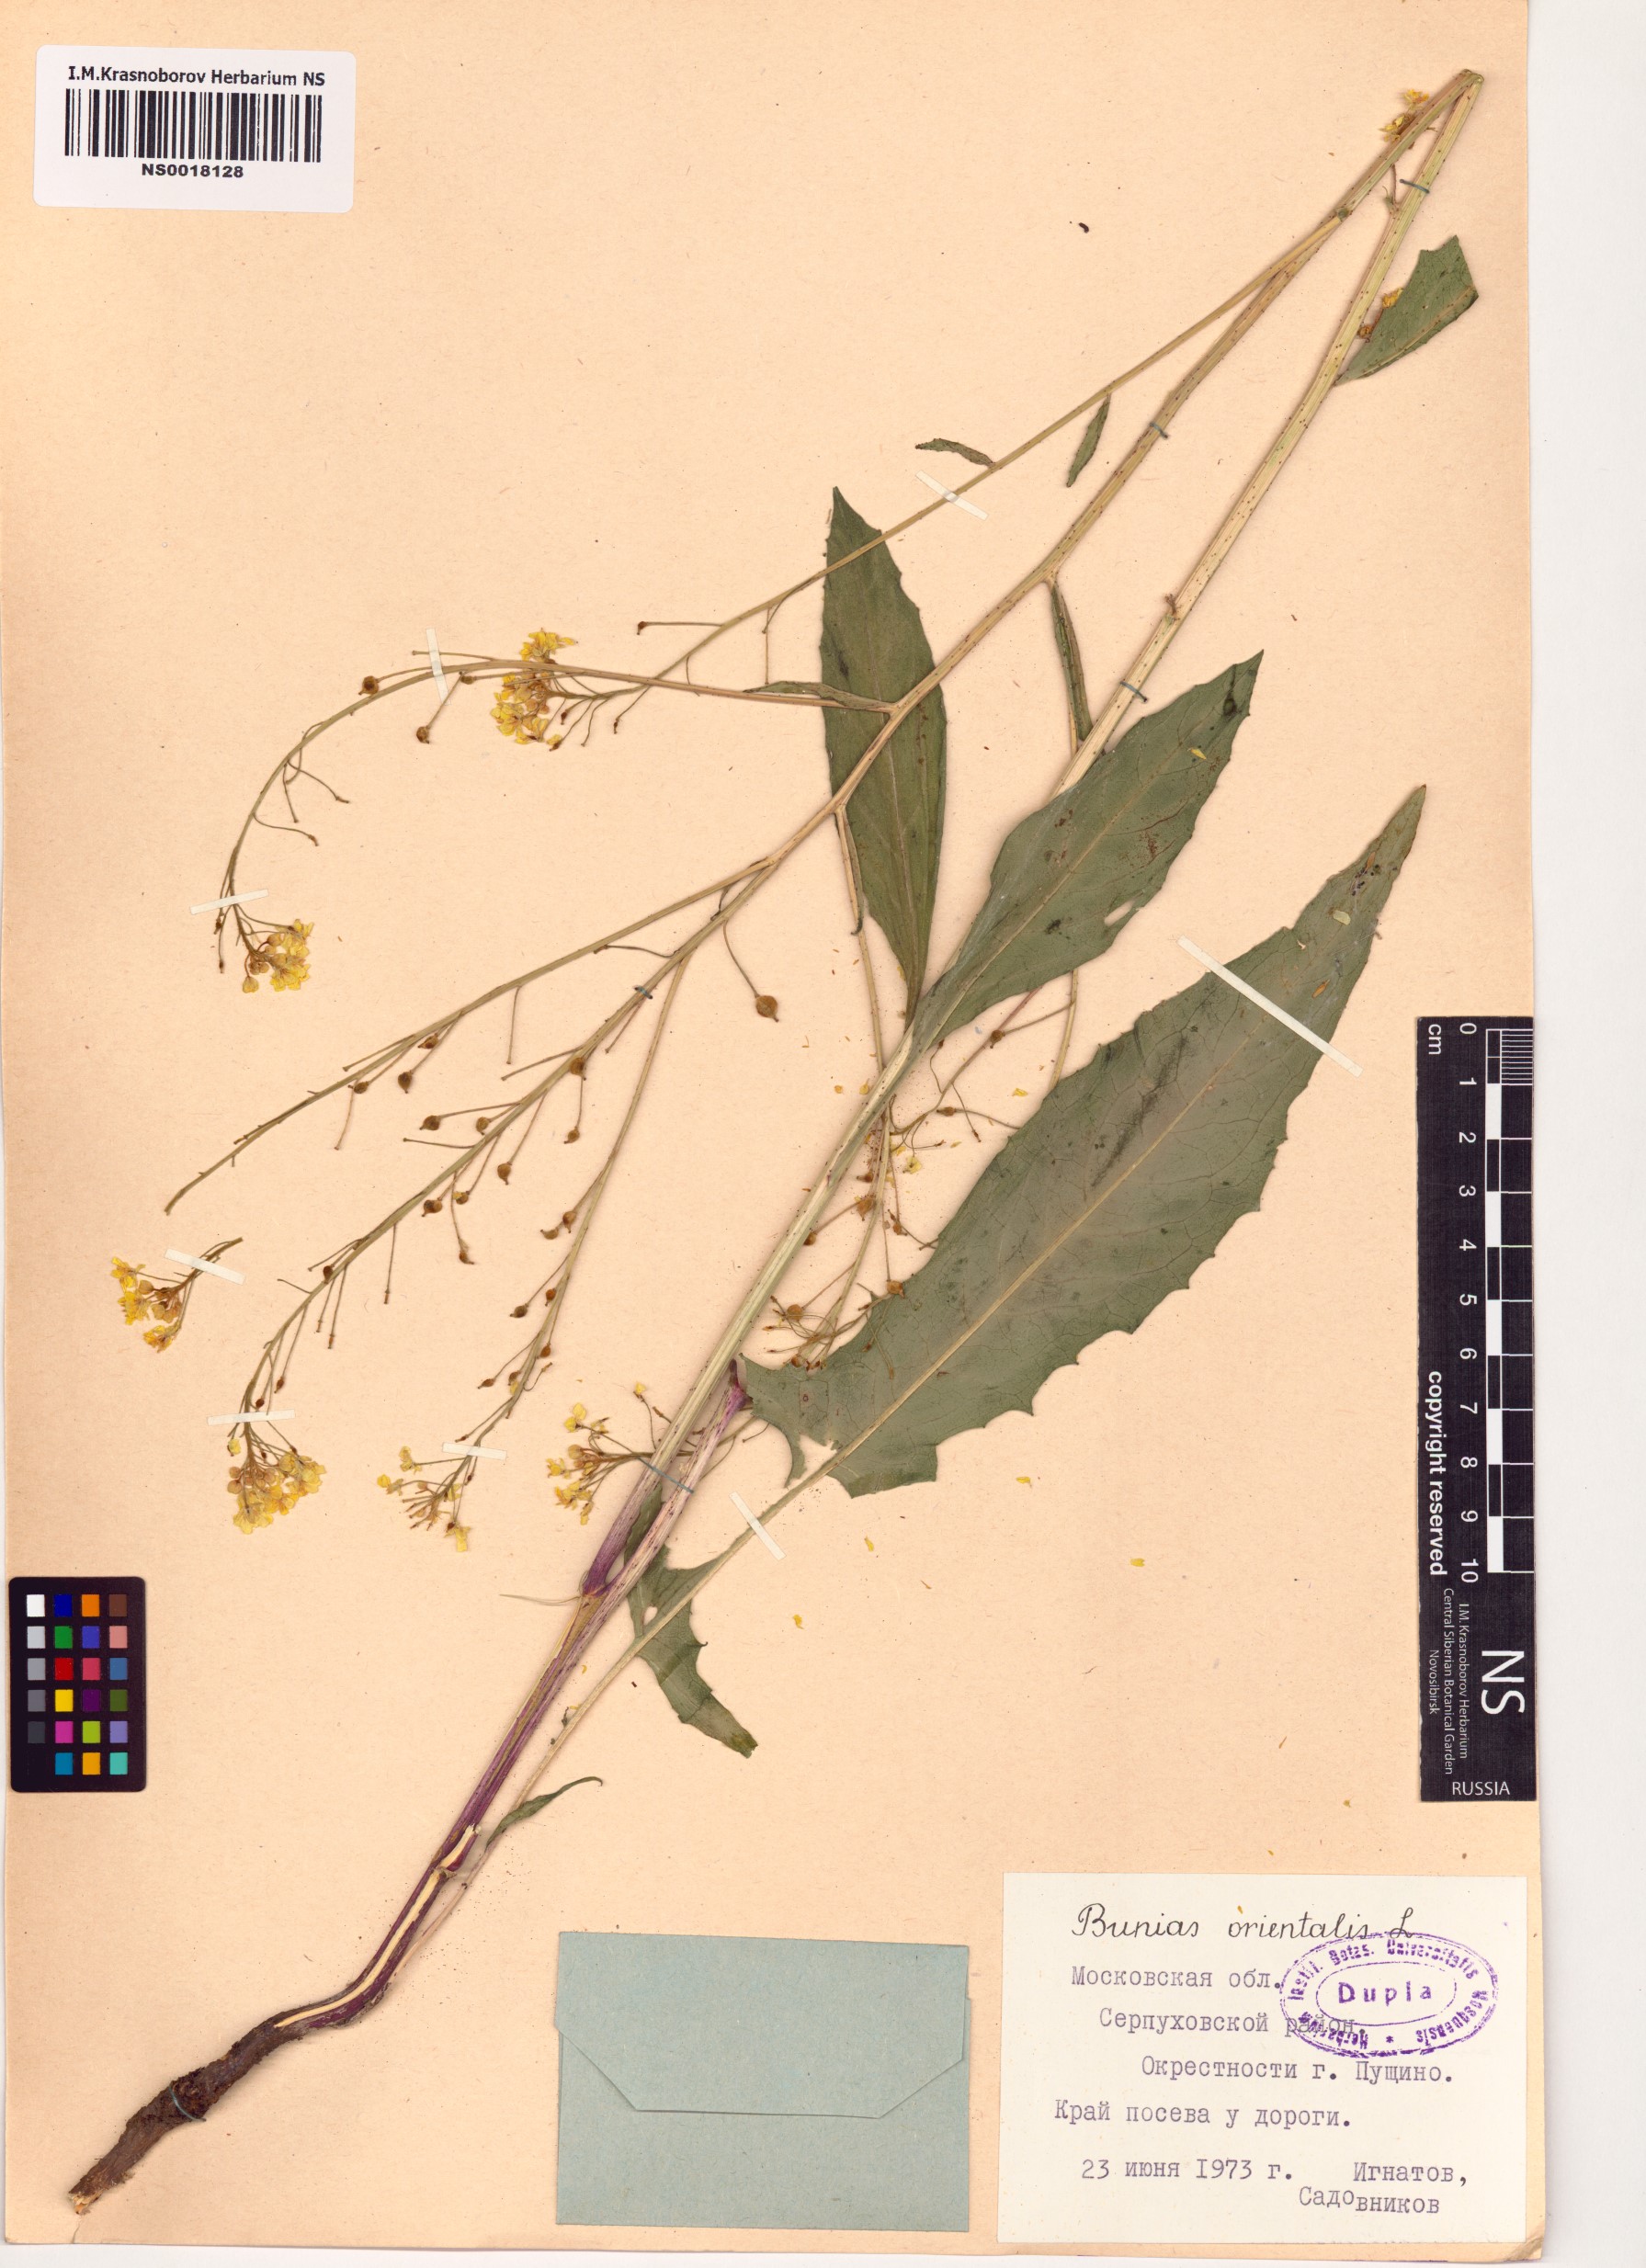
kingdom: Plantae
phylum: Tracheophyta
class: Magnoliopsida
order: Brassicales
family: Brassicaceae
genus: Bunias
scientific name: Bunias orientalis
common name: Warty-cabbage
